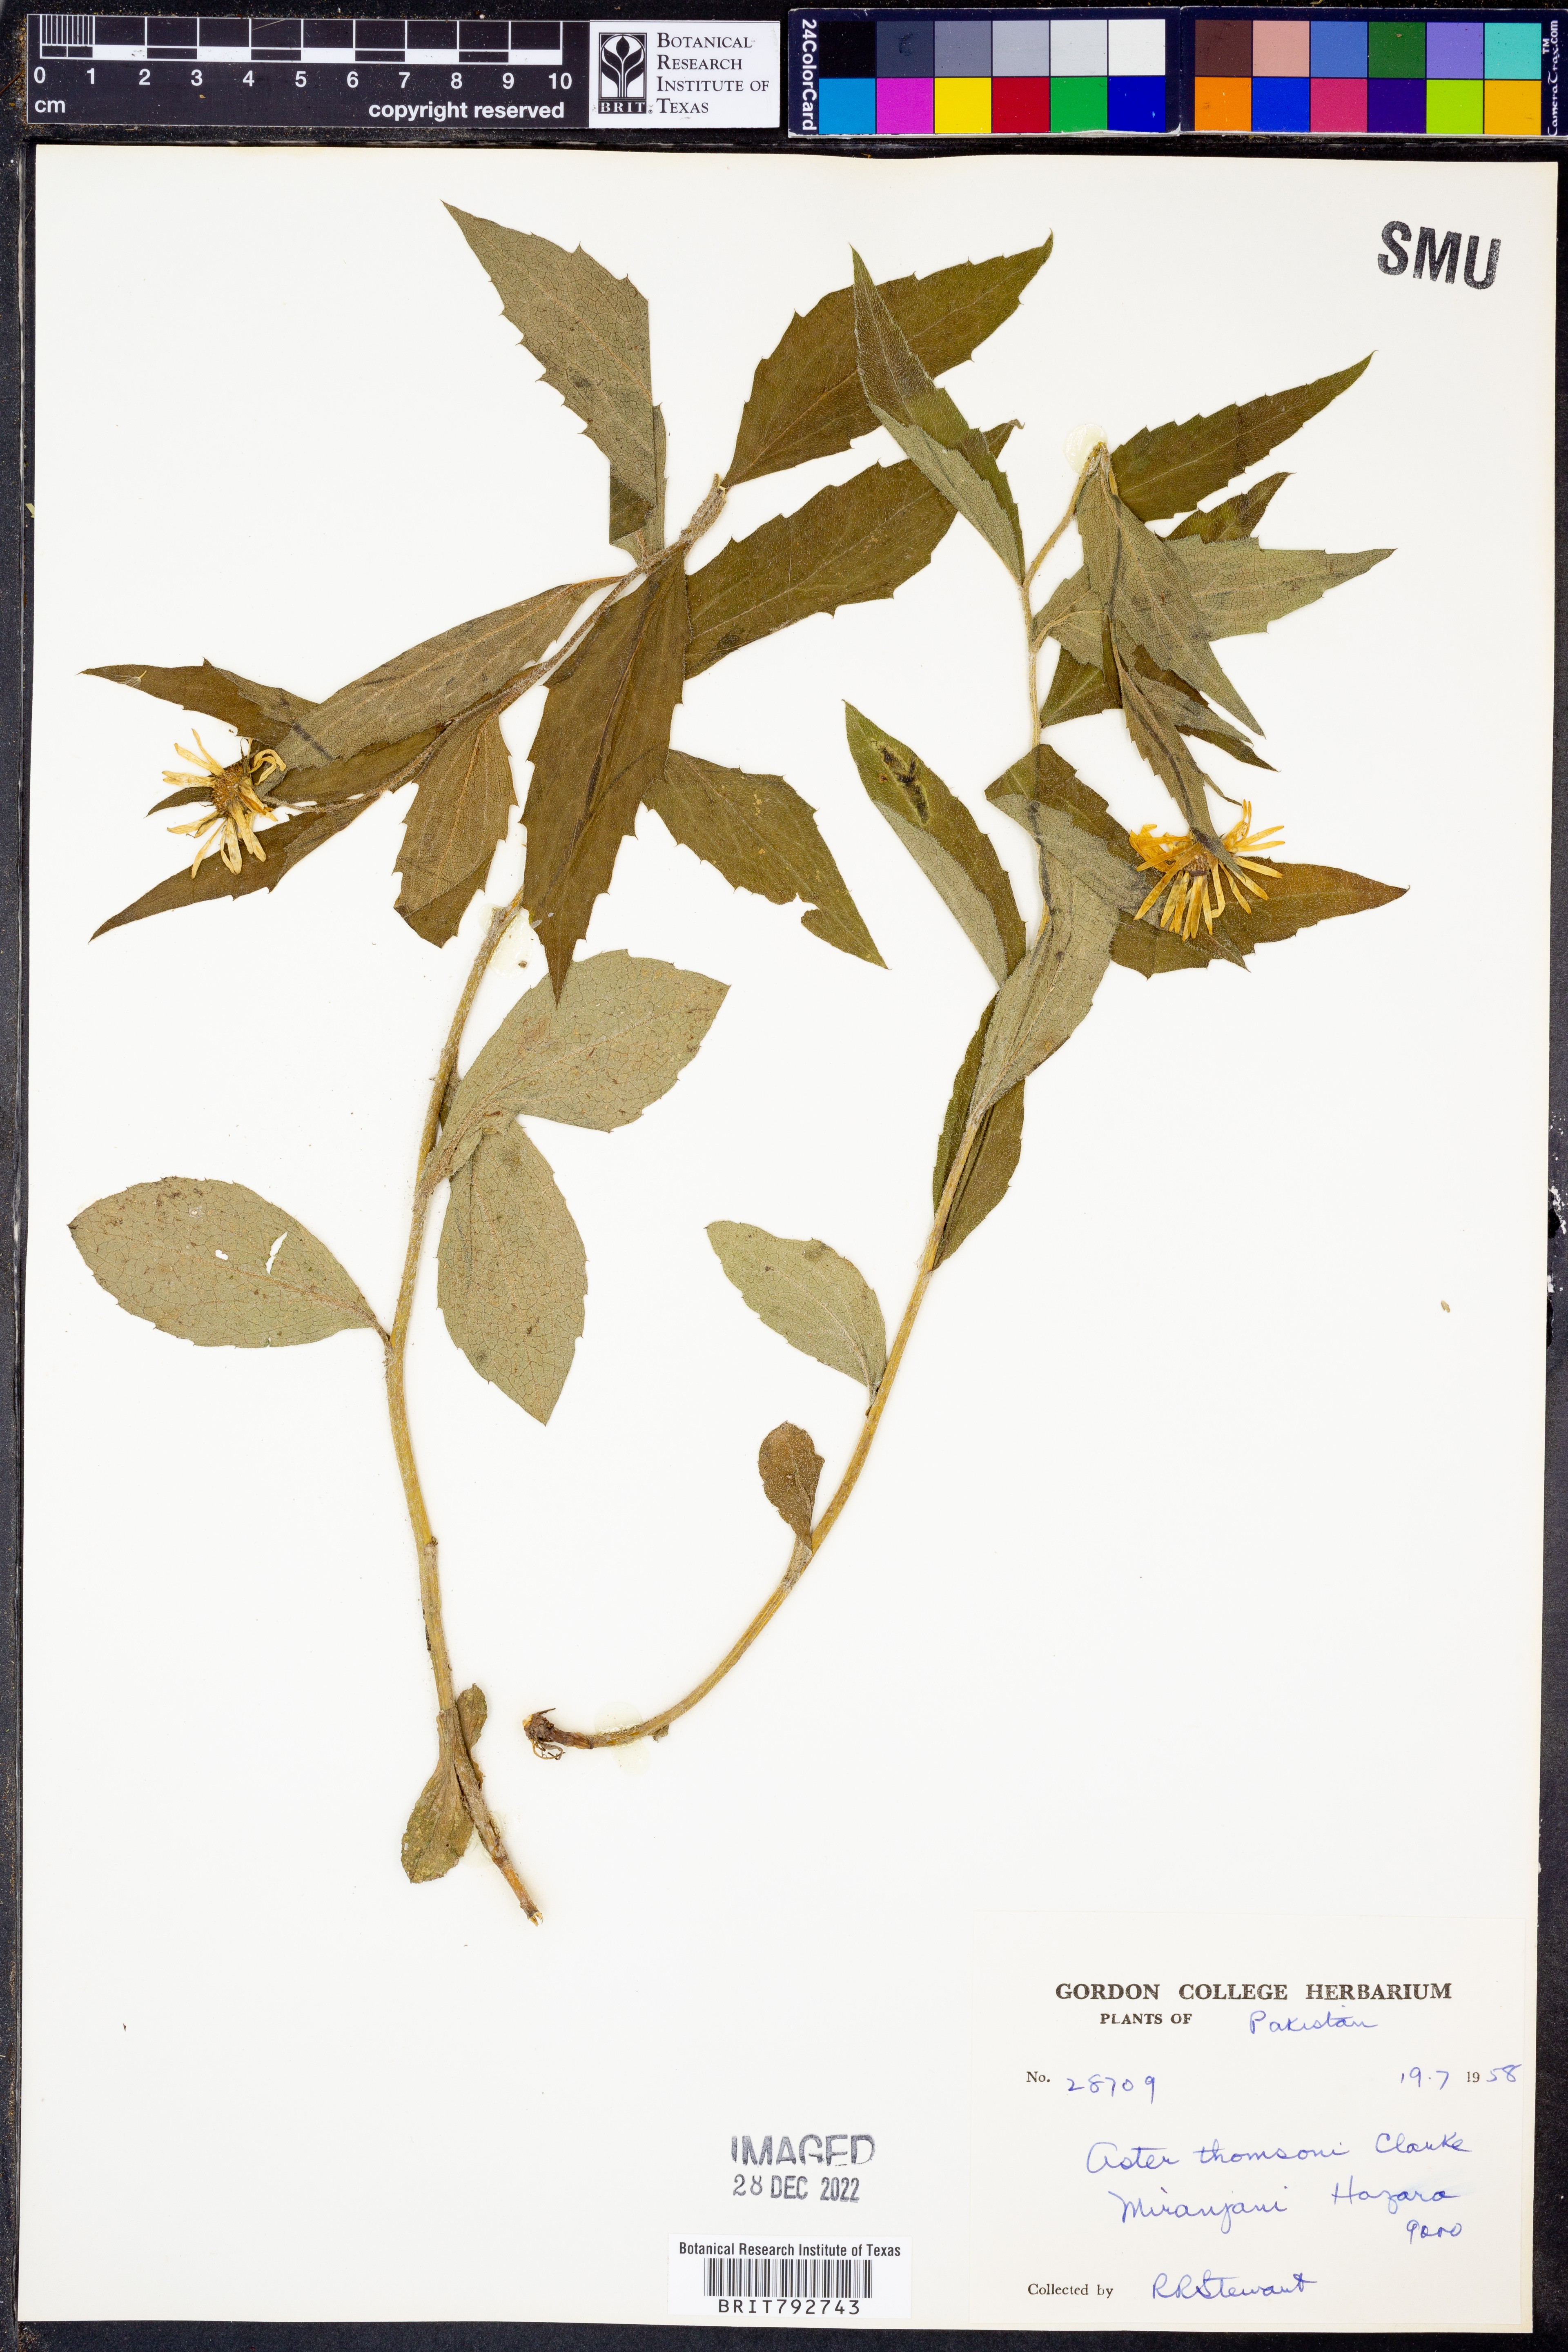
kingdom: Plantae
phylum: Tracheophyta
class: Magnoliopsida
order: Asterales
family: Asteraceae
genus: Cordiofontis
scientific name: Cordiofontis flexuosa
